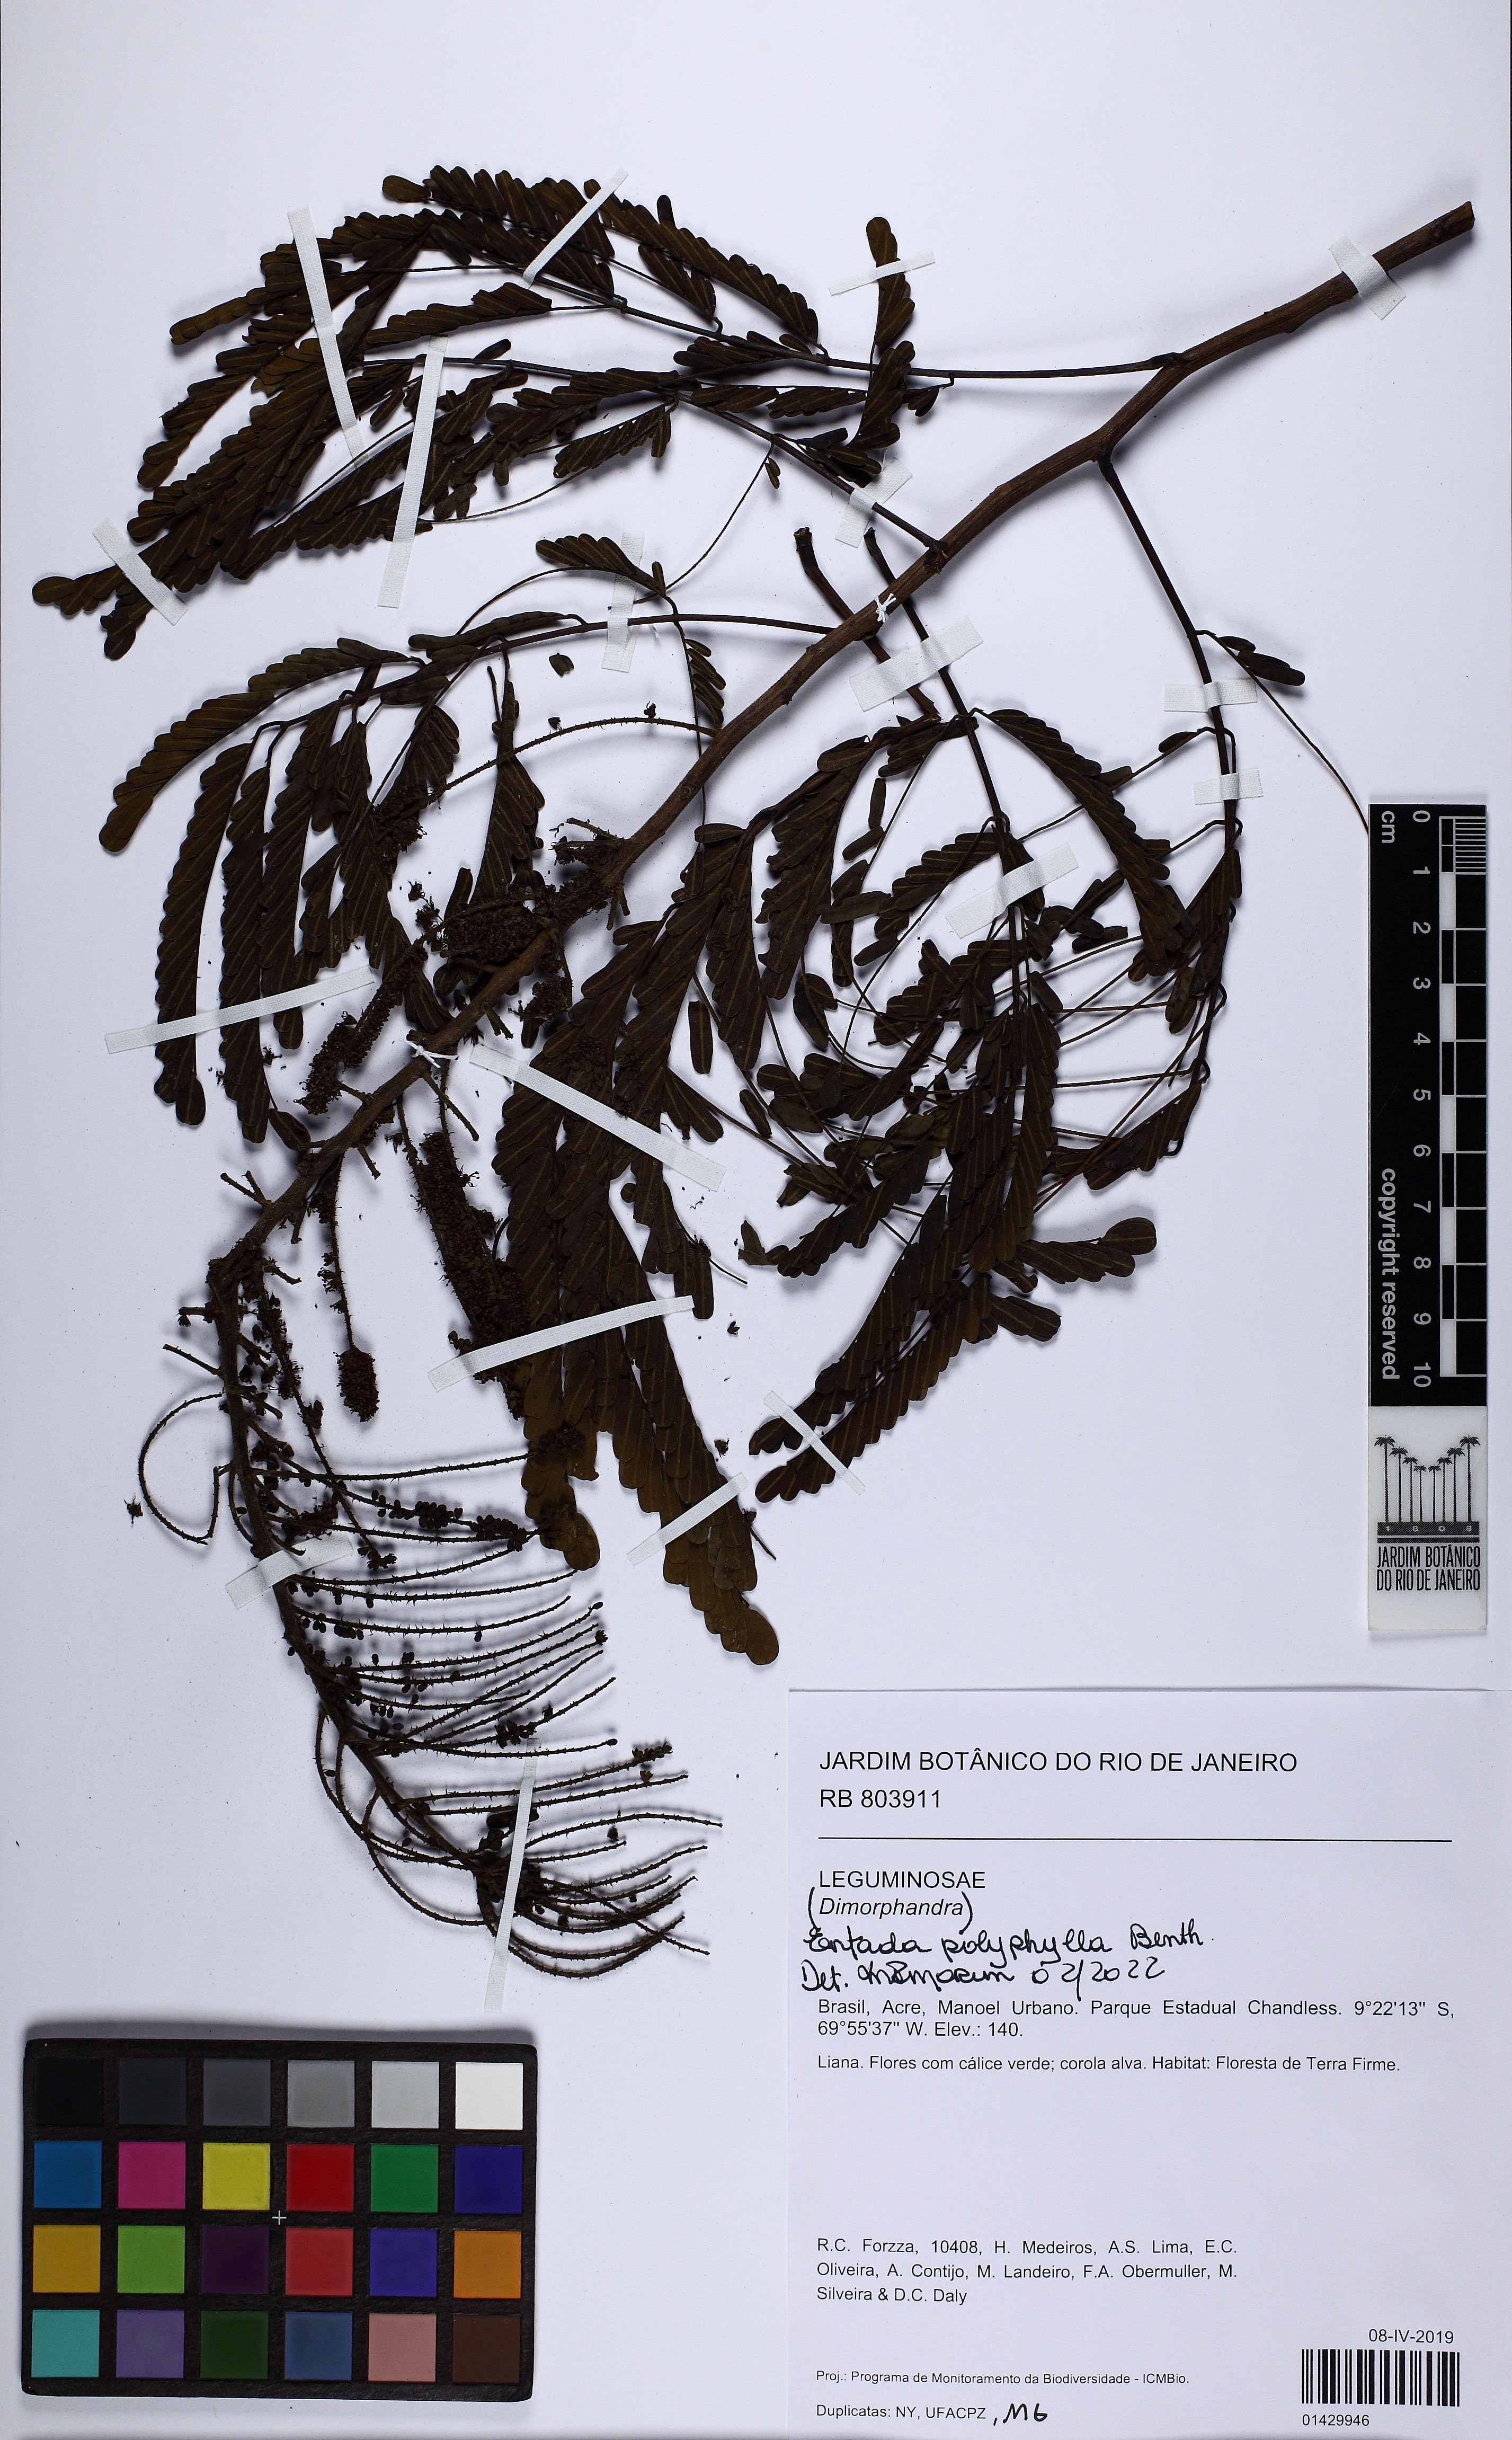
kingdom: Plantae
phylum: Tracheophyta
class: Magnoliopsida
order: Fabales
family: Fabaceae
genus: Entada
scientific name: Entada polyphylla
